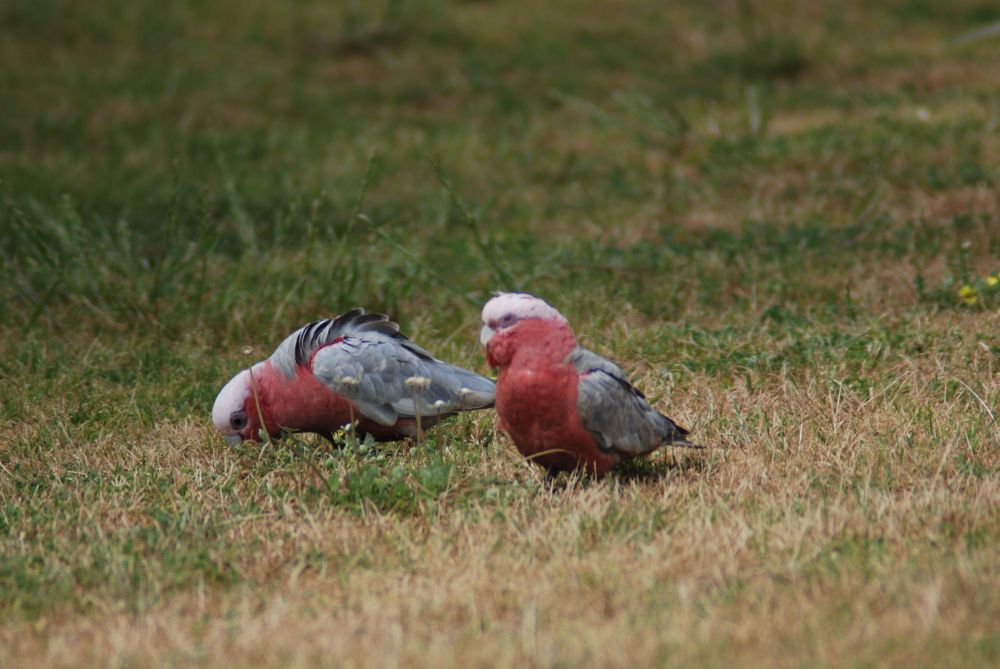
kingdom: Animalia
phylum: Chordata
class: Aves
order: Psittaciformes
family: Psittacidae
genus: Eolophus
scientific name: Eolophus roseicapilla
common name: Galah
